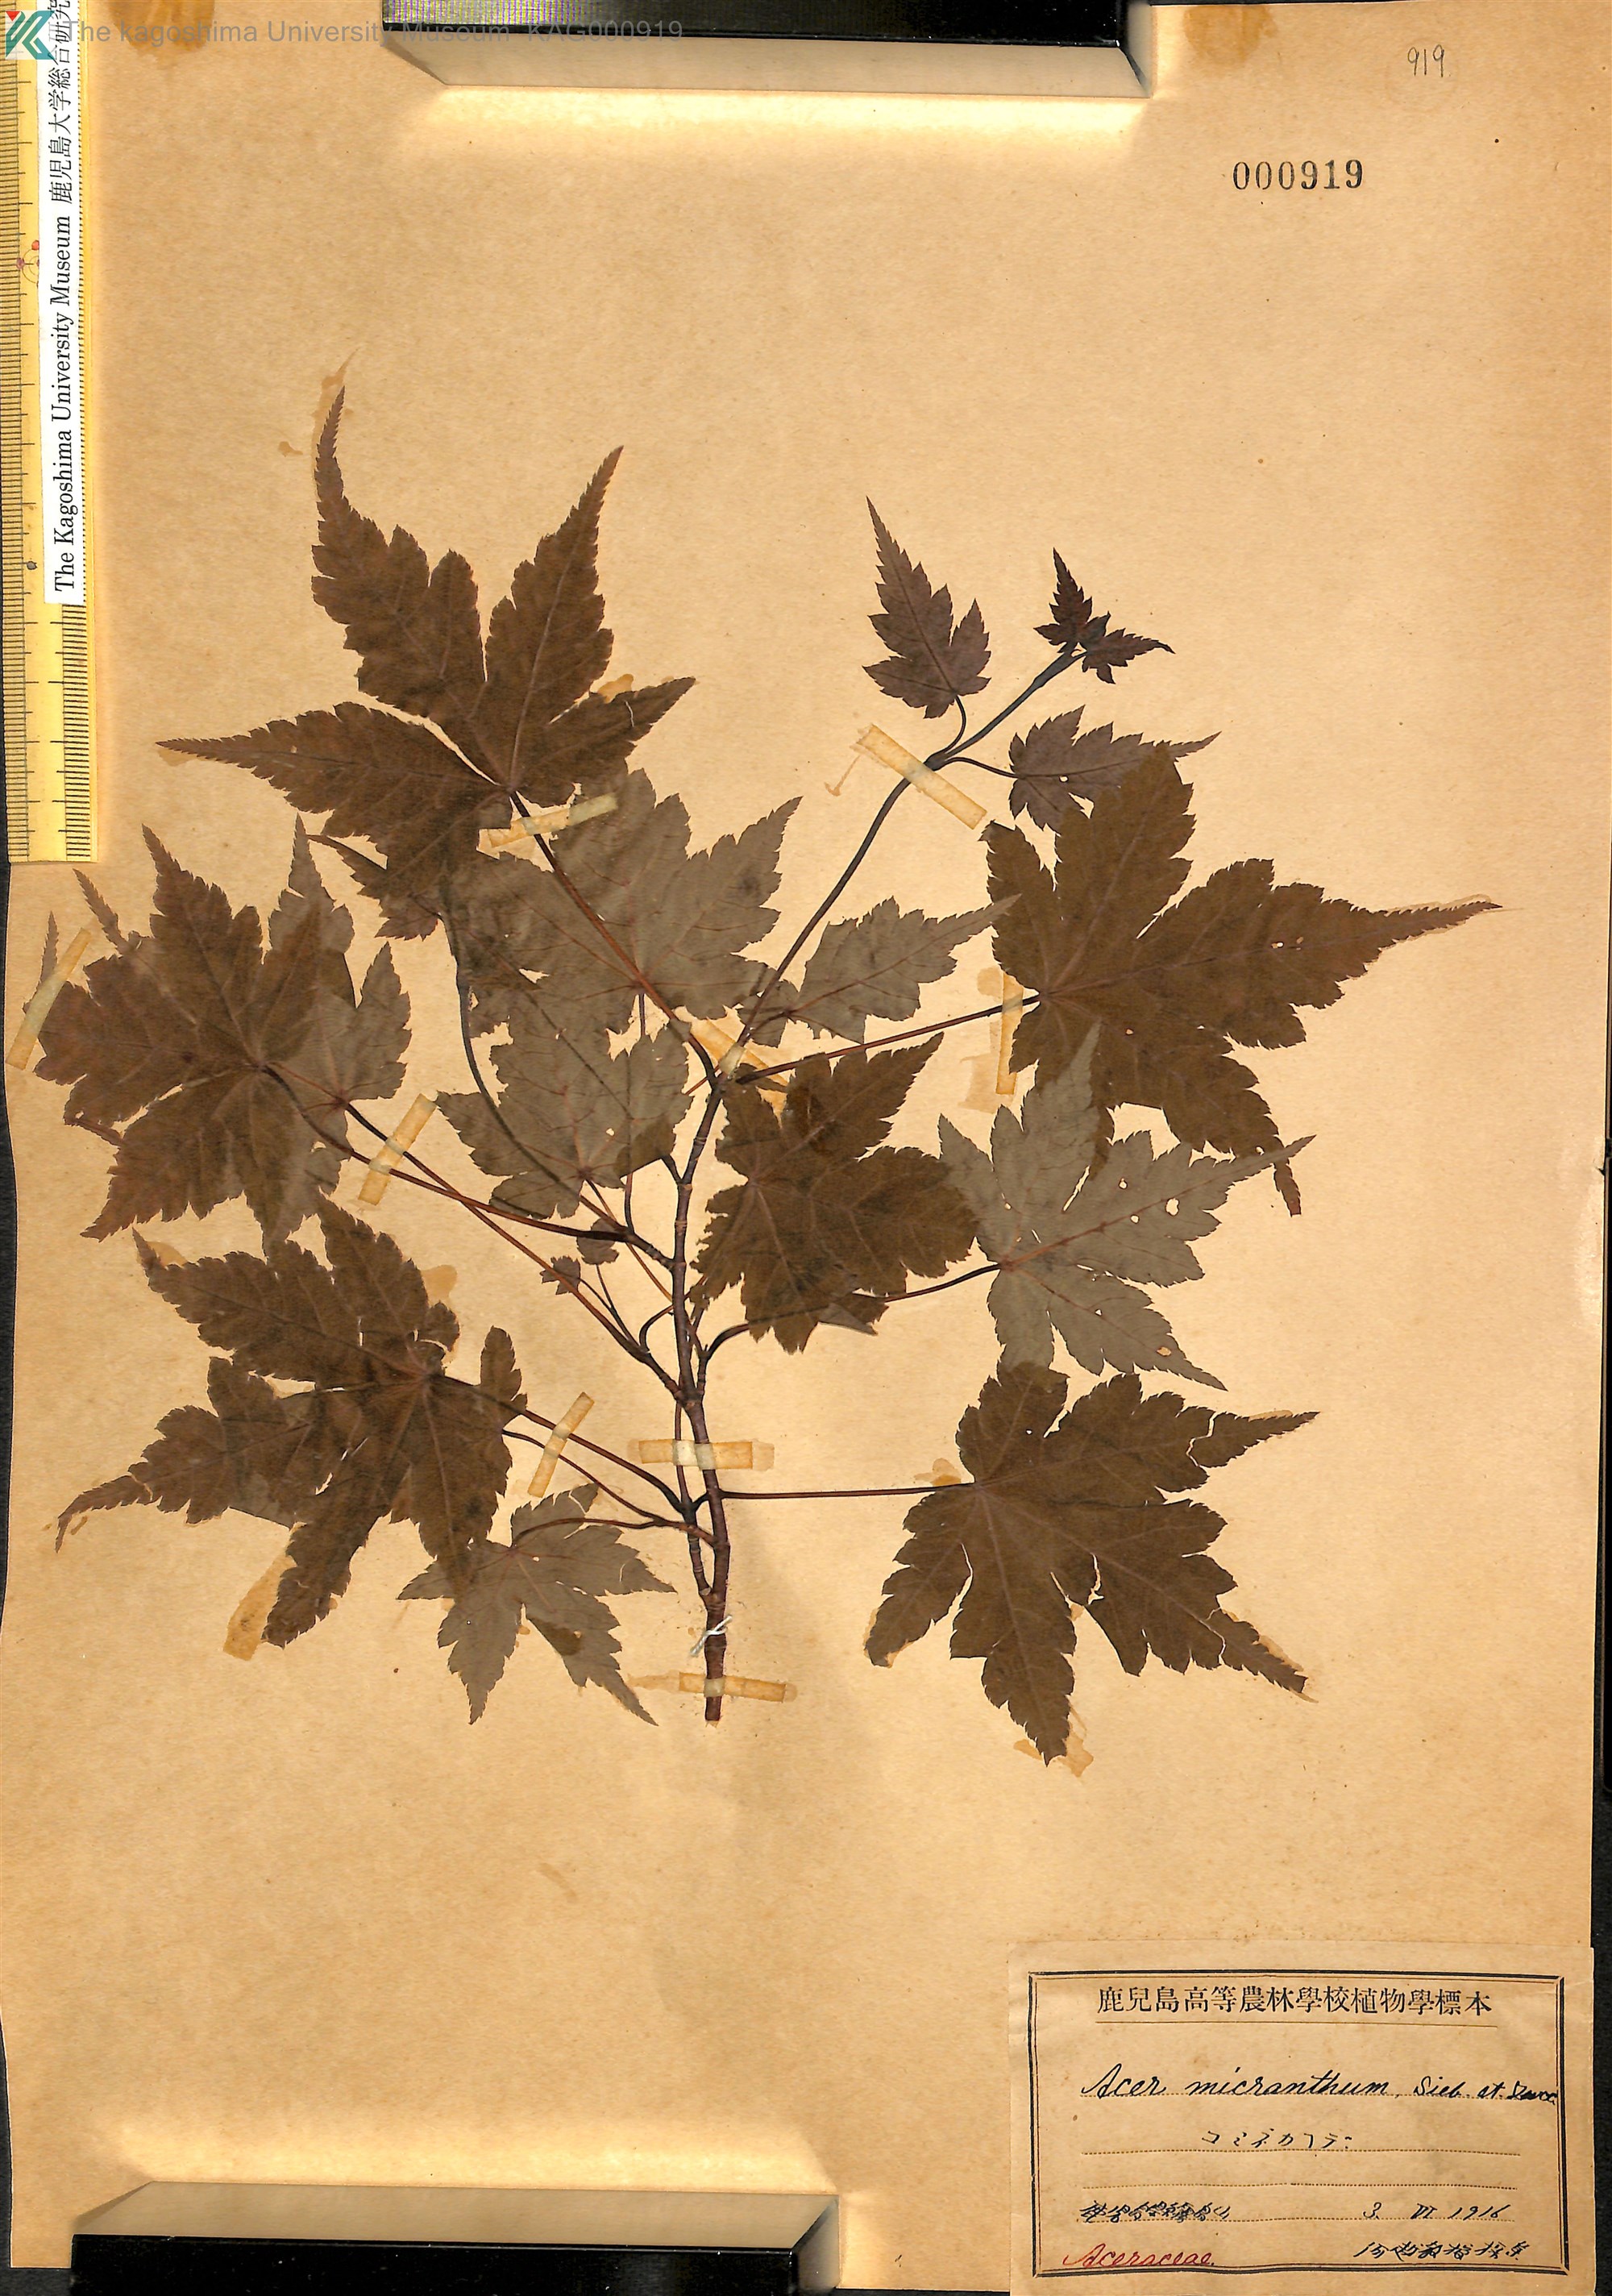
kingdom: Plantae
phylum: Tracheophyta
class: Magnoliopsida
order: Sapindales
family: Sapindaceae
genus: Acer
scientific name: Acer micranthum
